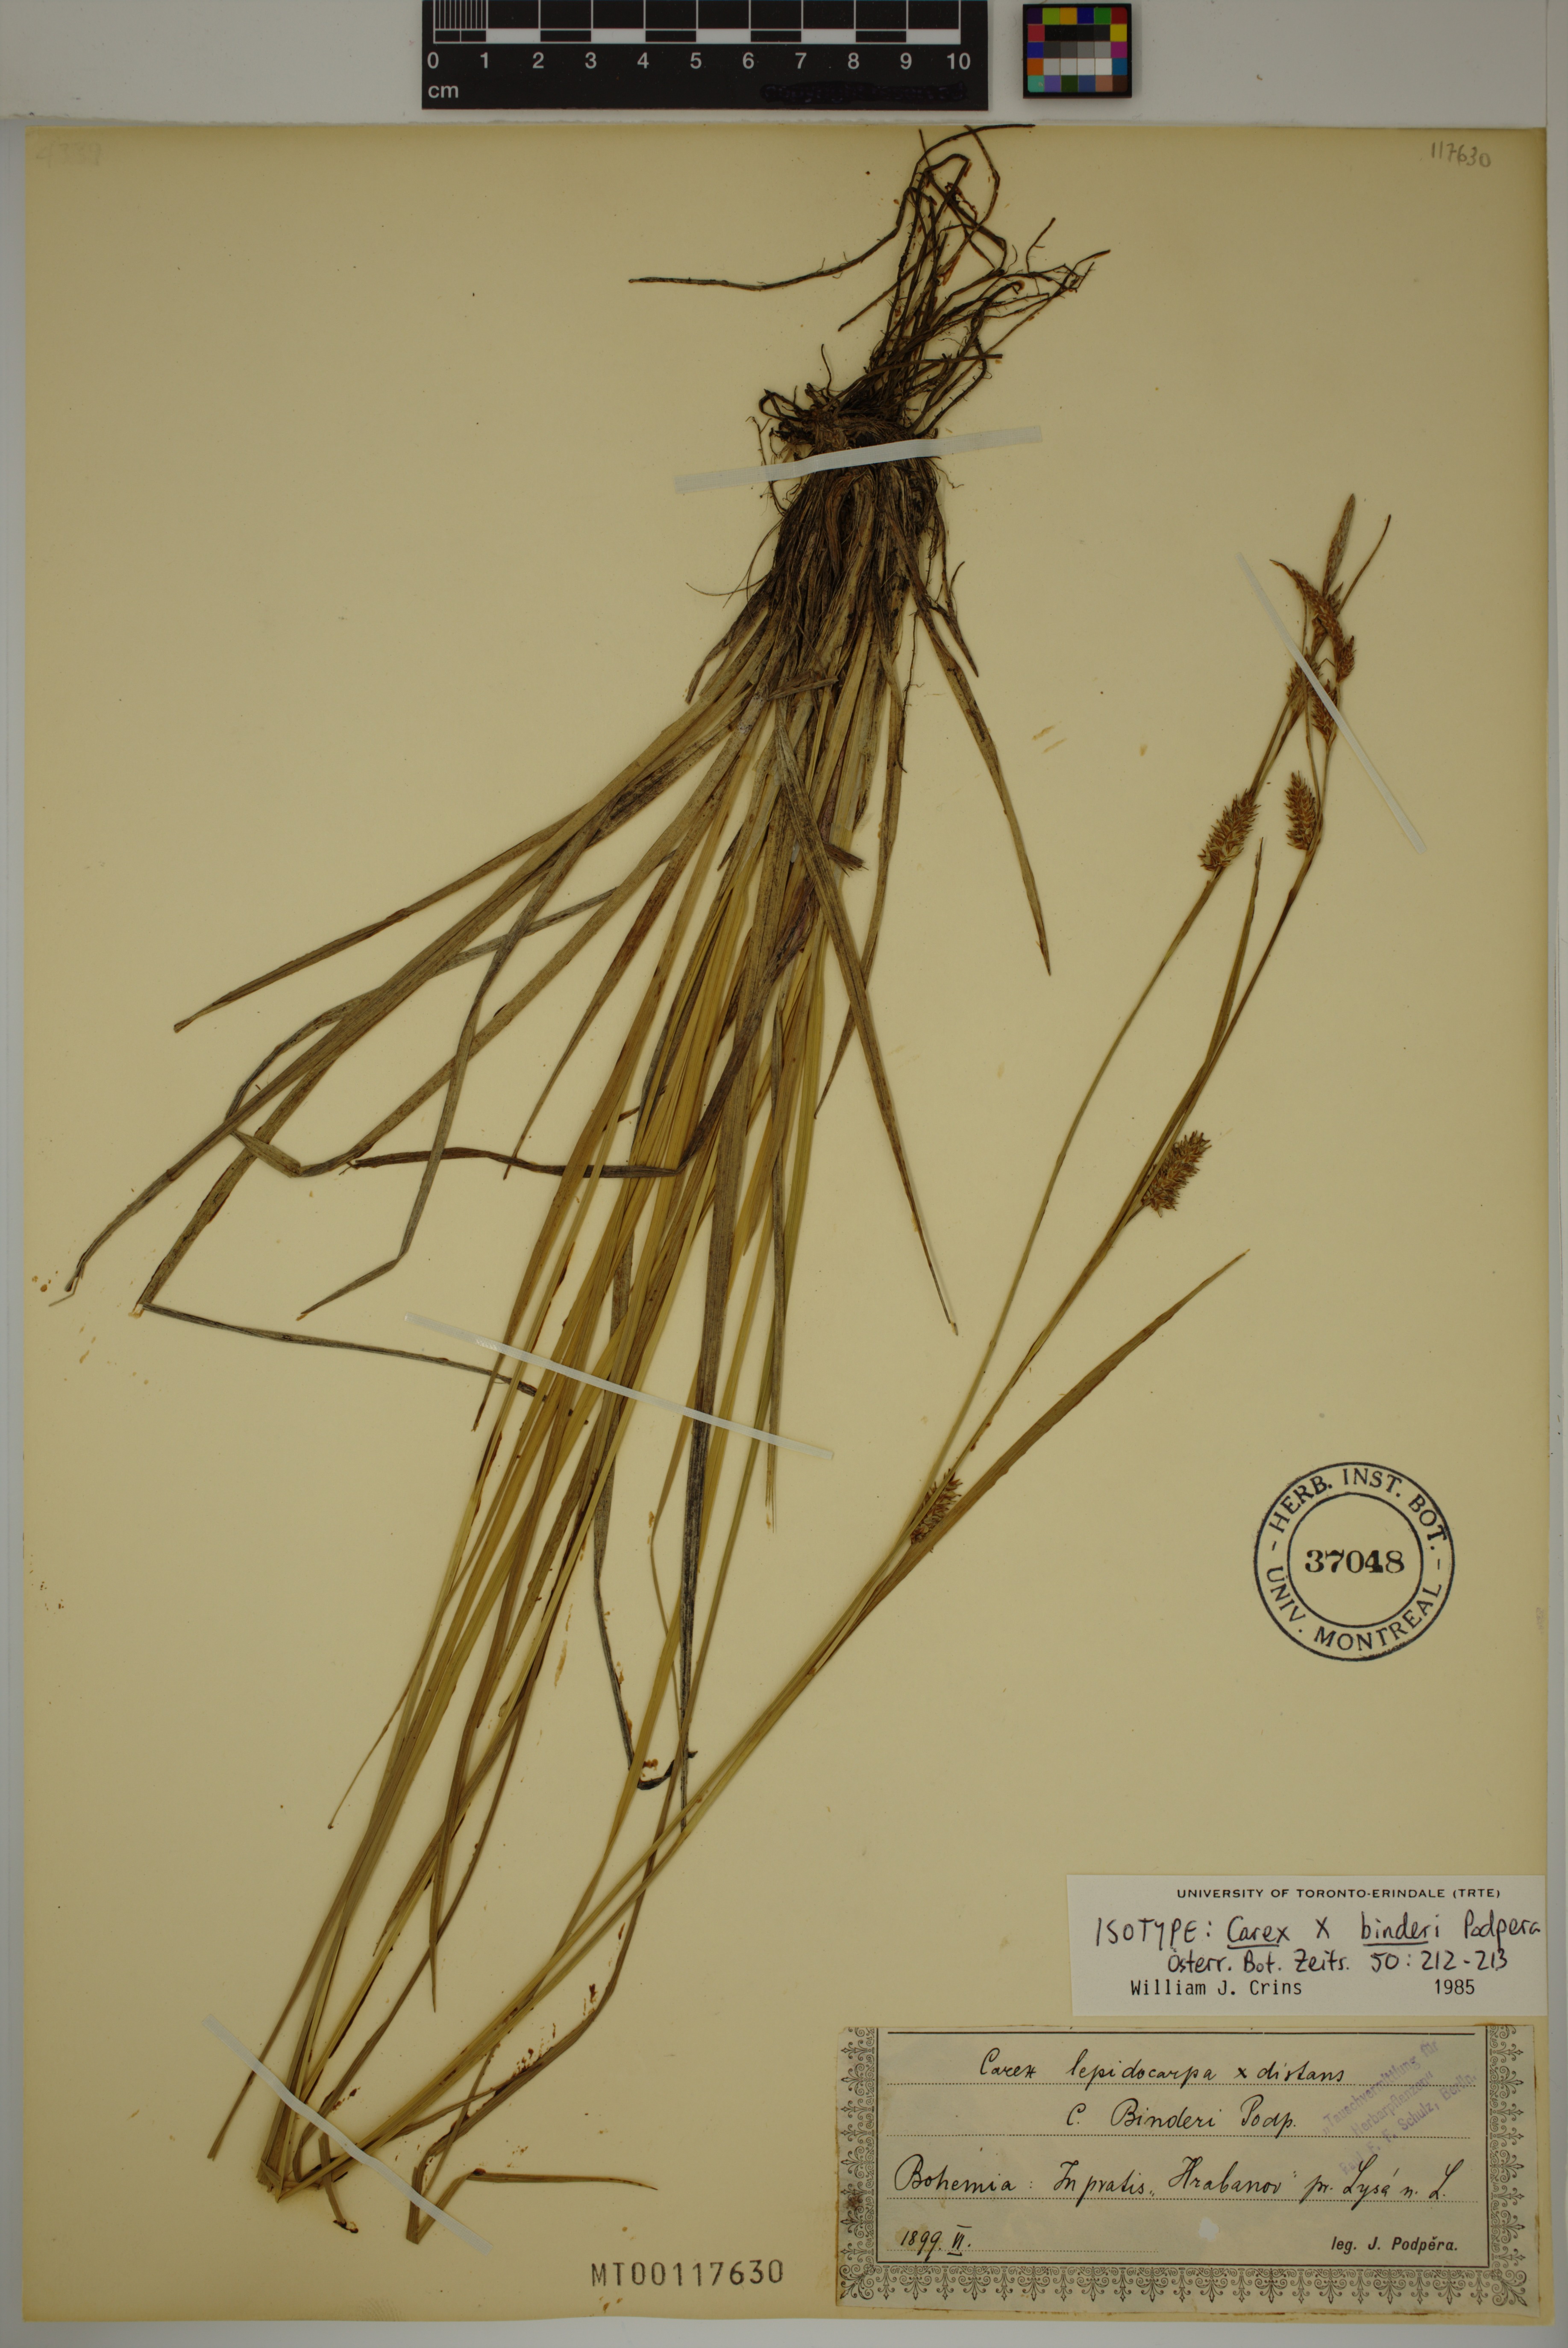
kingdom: Plantae
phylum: Tracheophyta
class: Liliopsida
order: Poales
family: Cyperaceae
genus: Carex
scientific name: Carex binderi
